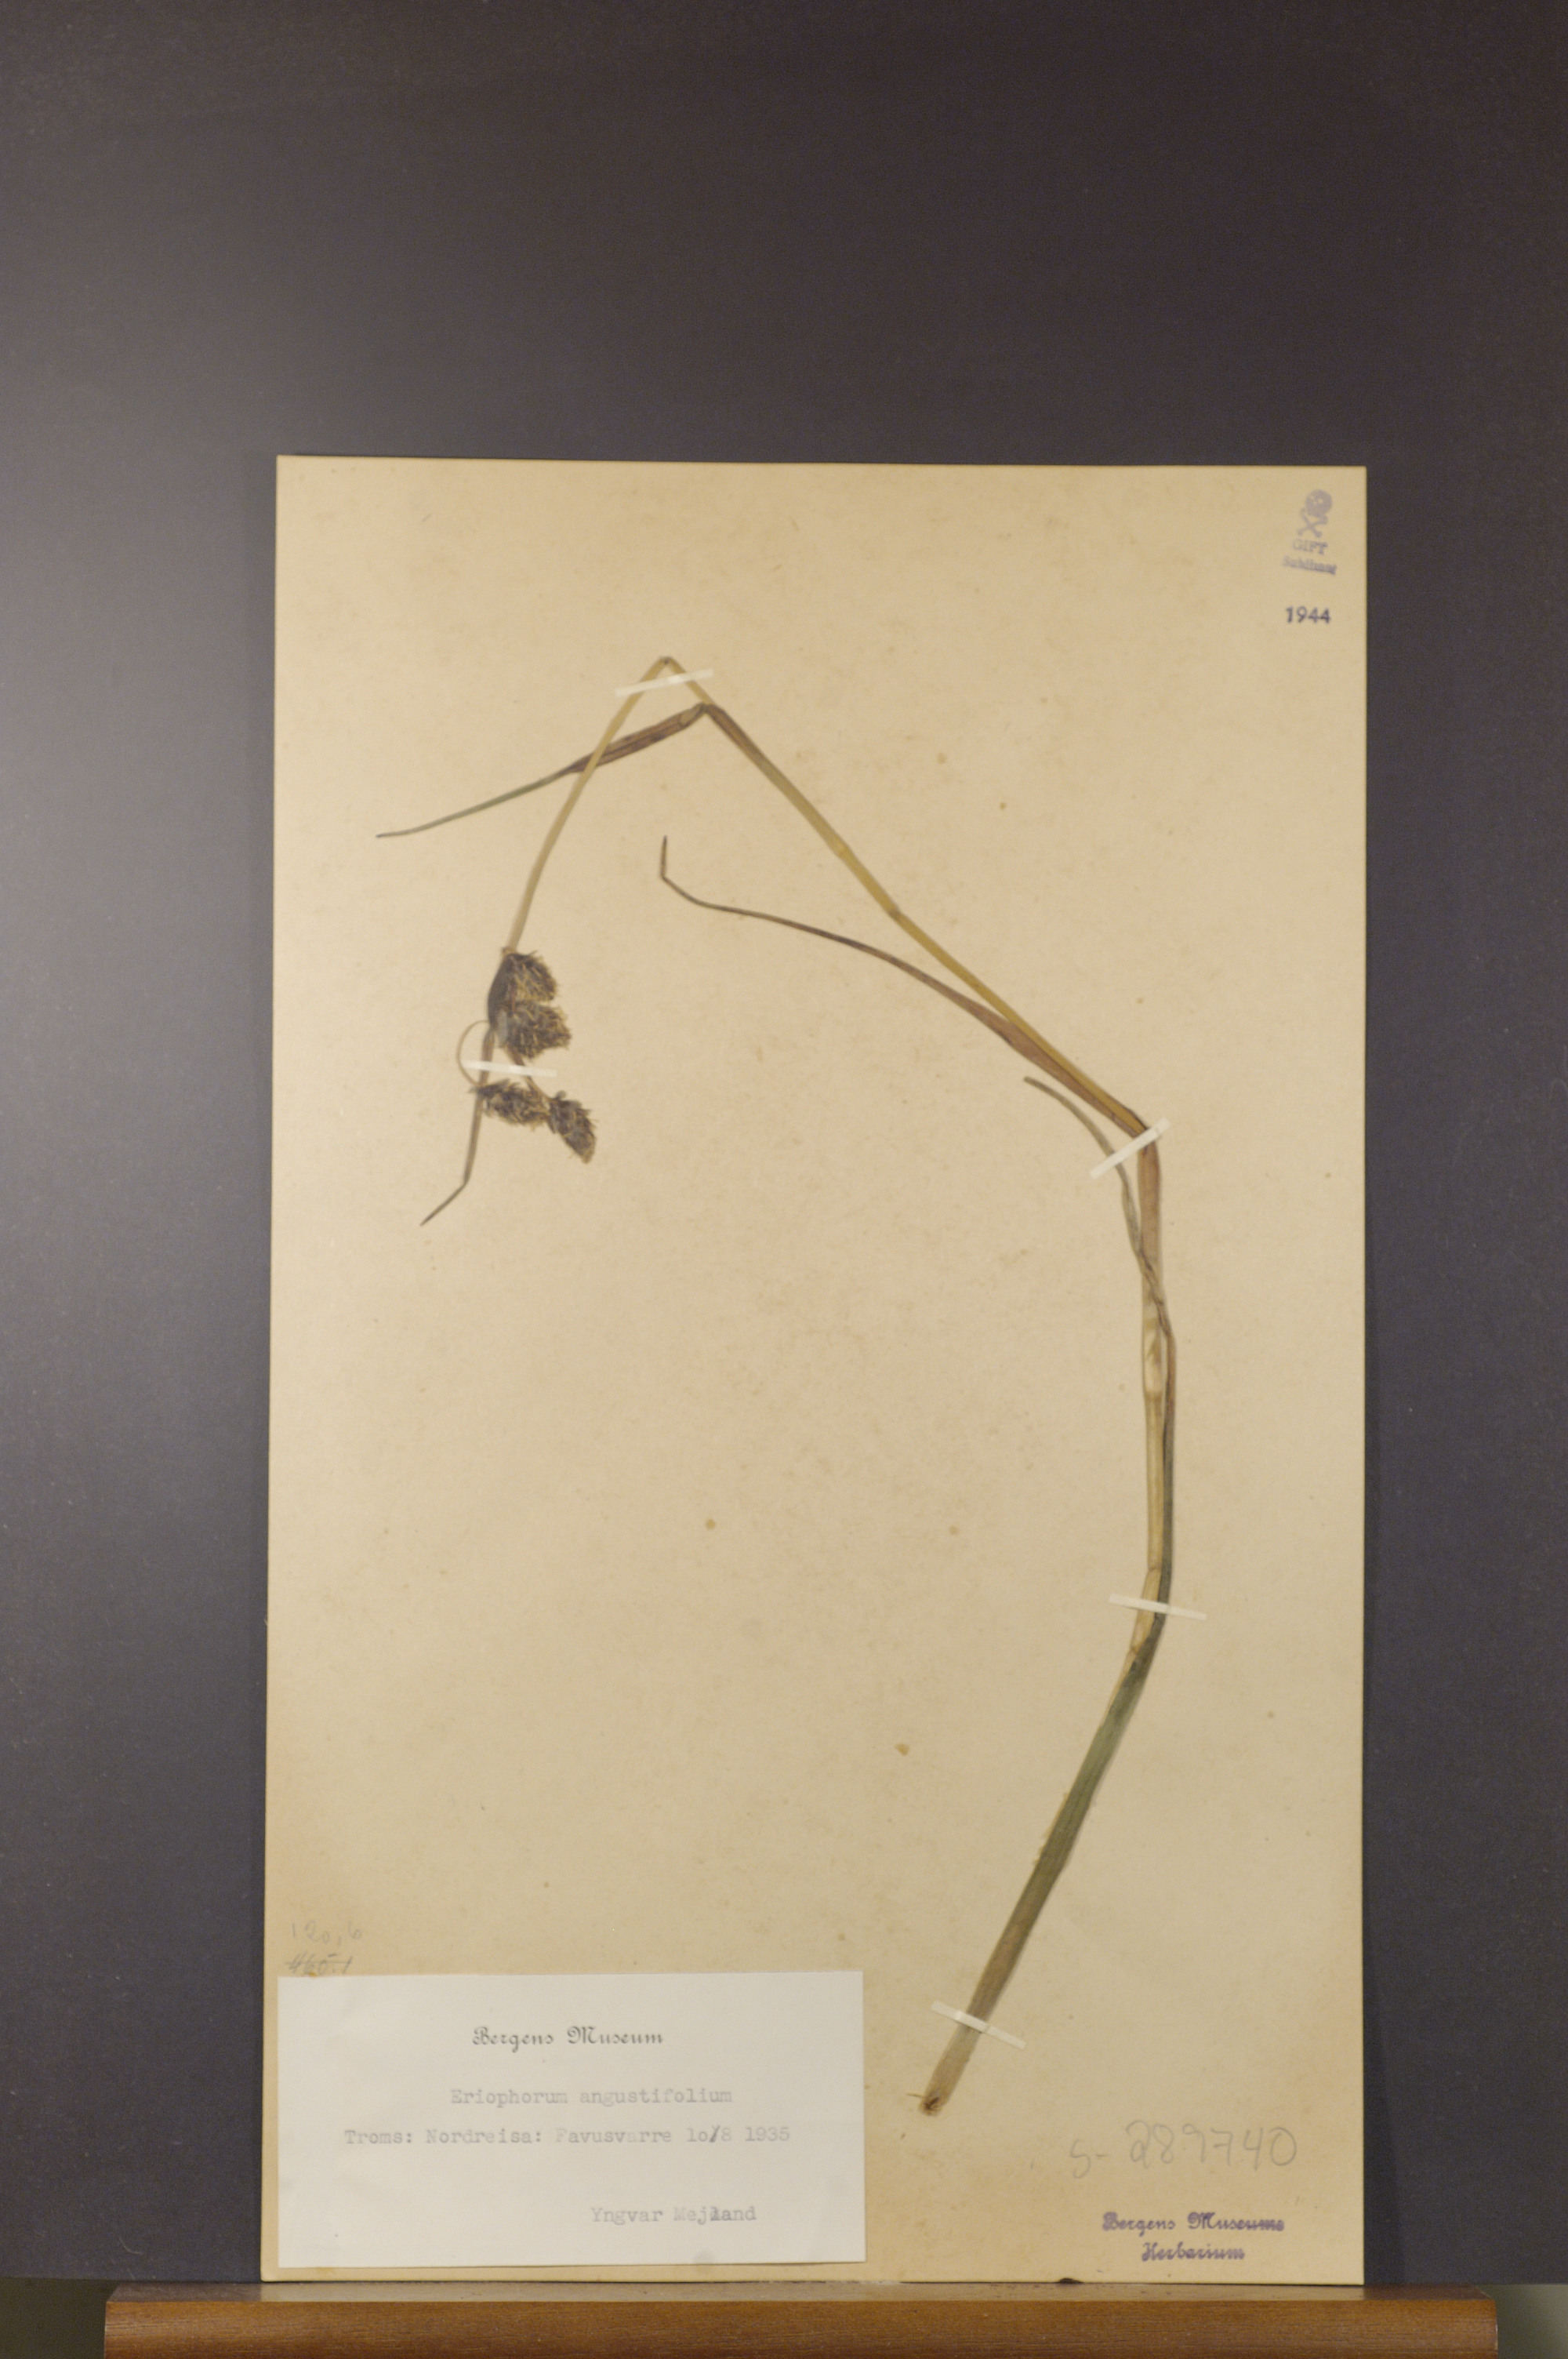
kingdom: Plantae
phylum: Tracheophyta
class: Liliopsida
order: Poales
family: Cyperaceae
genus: Eriophorum
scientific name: Eriophorum angustifolium
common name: Common cottongrass
